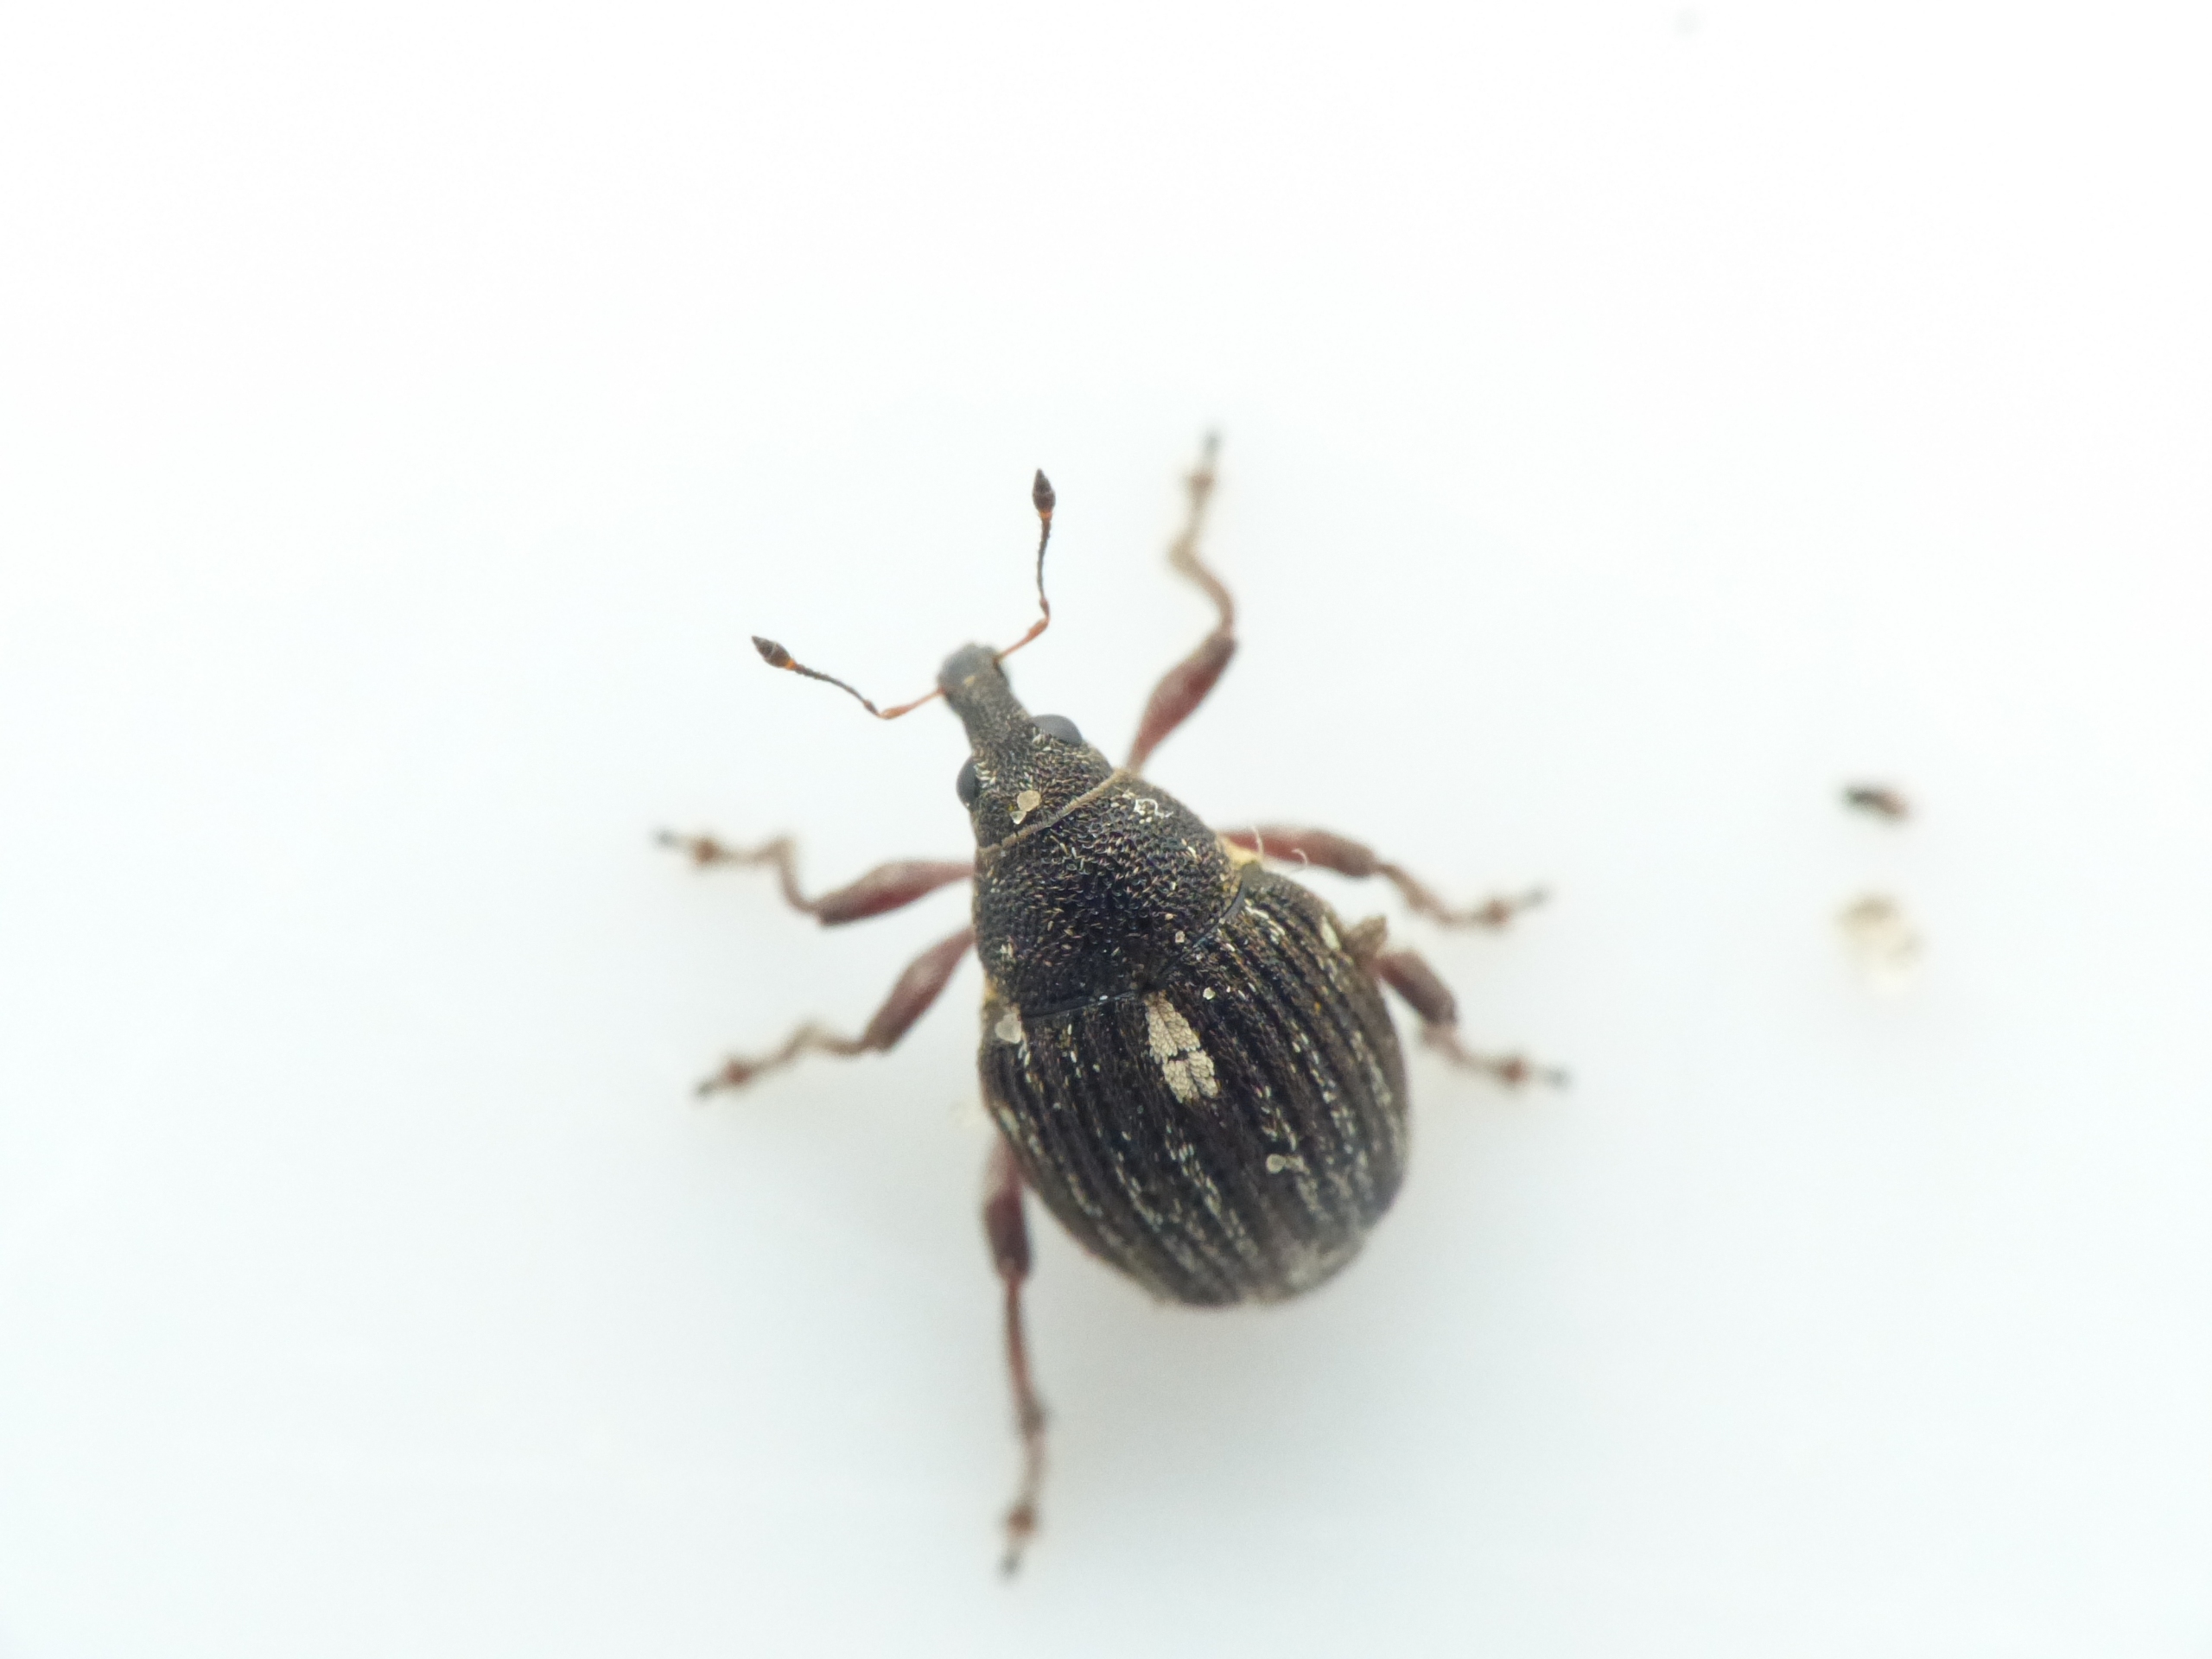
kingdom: Animalia
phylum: Arthropoda
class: Insecta
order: Coleoptera
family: Curculionidae
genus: Rhinoncus
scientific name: Rhinoncus leucostigma
